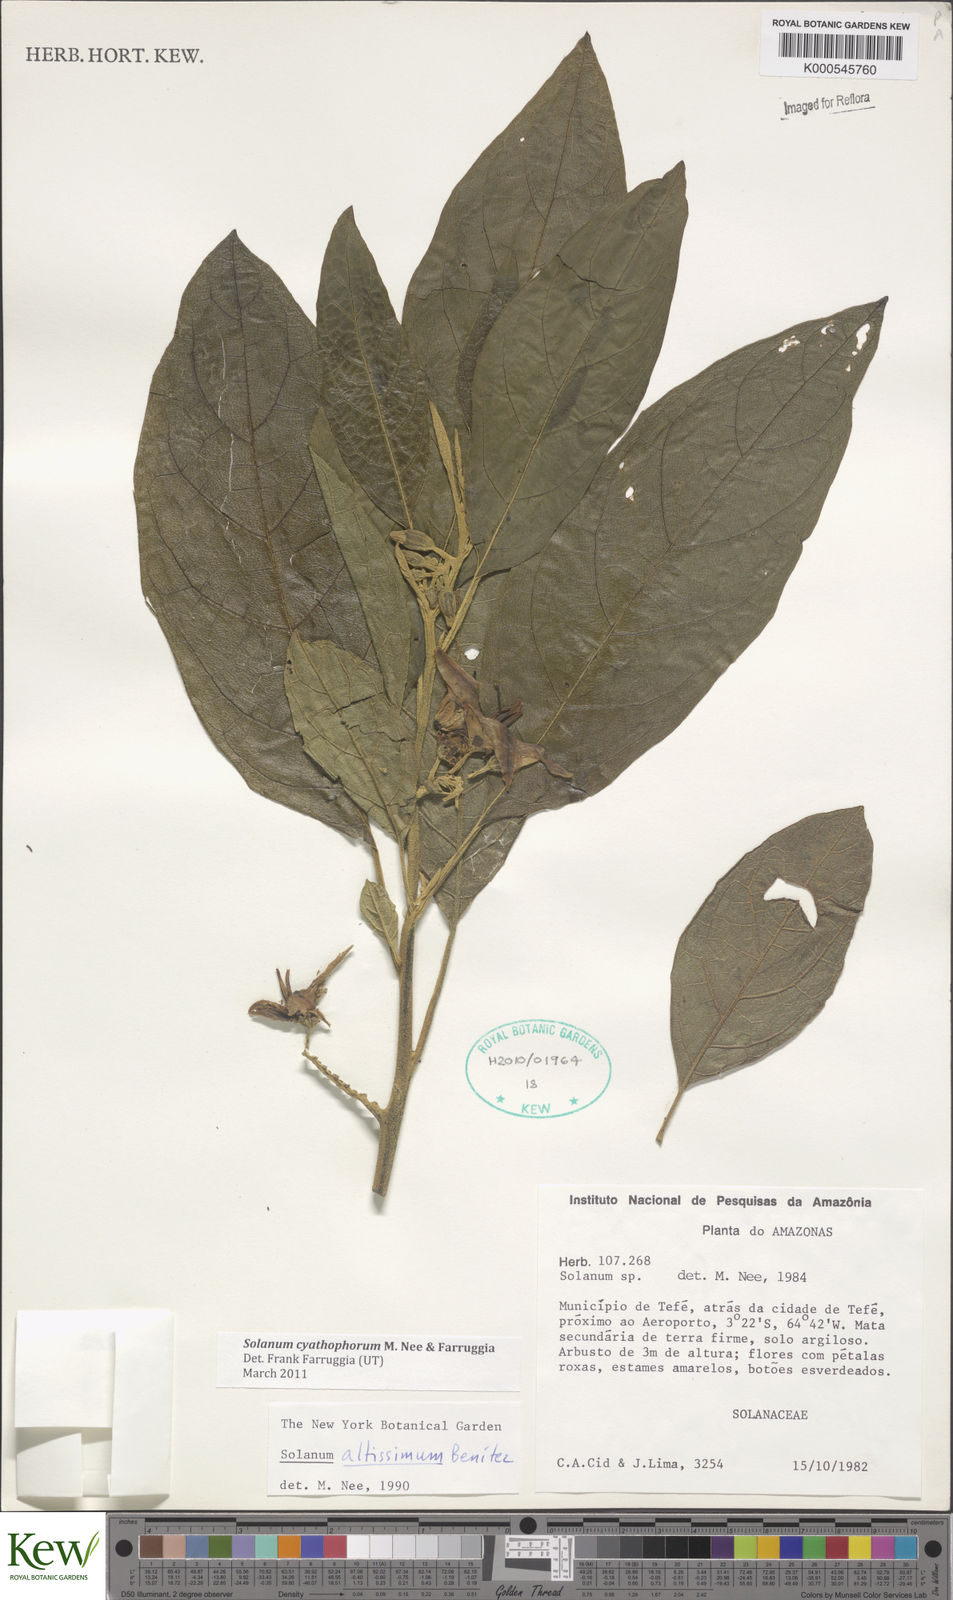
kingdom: Plantae
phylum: Tracheophyta
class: Magnoliopsida
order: Solanales
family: Solanaceae
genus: Solanum
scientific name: Solanum cyathophorum
